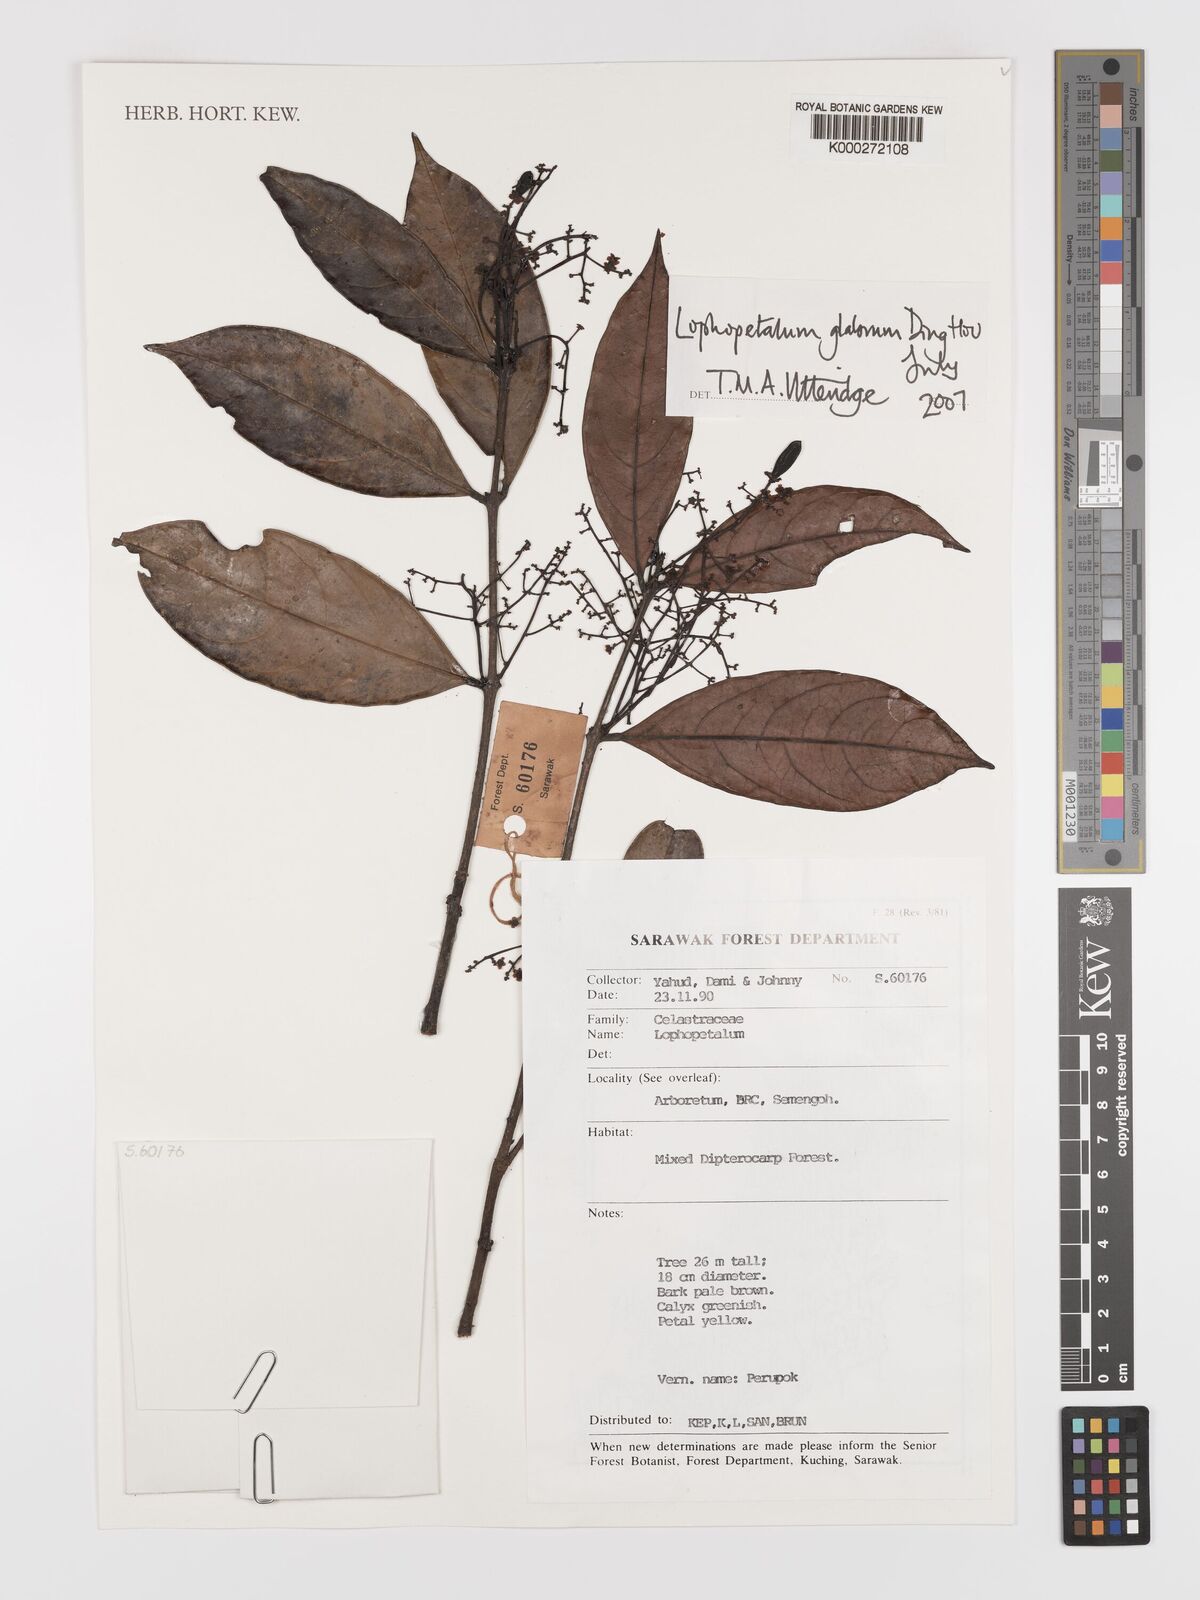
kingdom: Plantae
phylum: Tracheophyta
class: Magnoliopsida
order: Celastrales
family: Celastraceae
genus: Lophopetalum
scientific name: Lophopetalum glabrum
